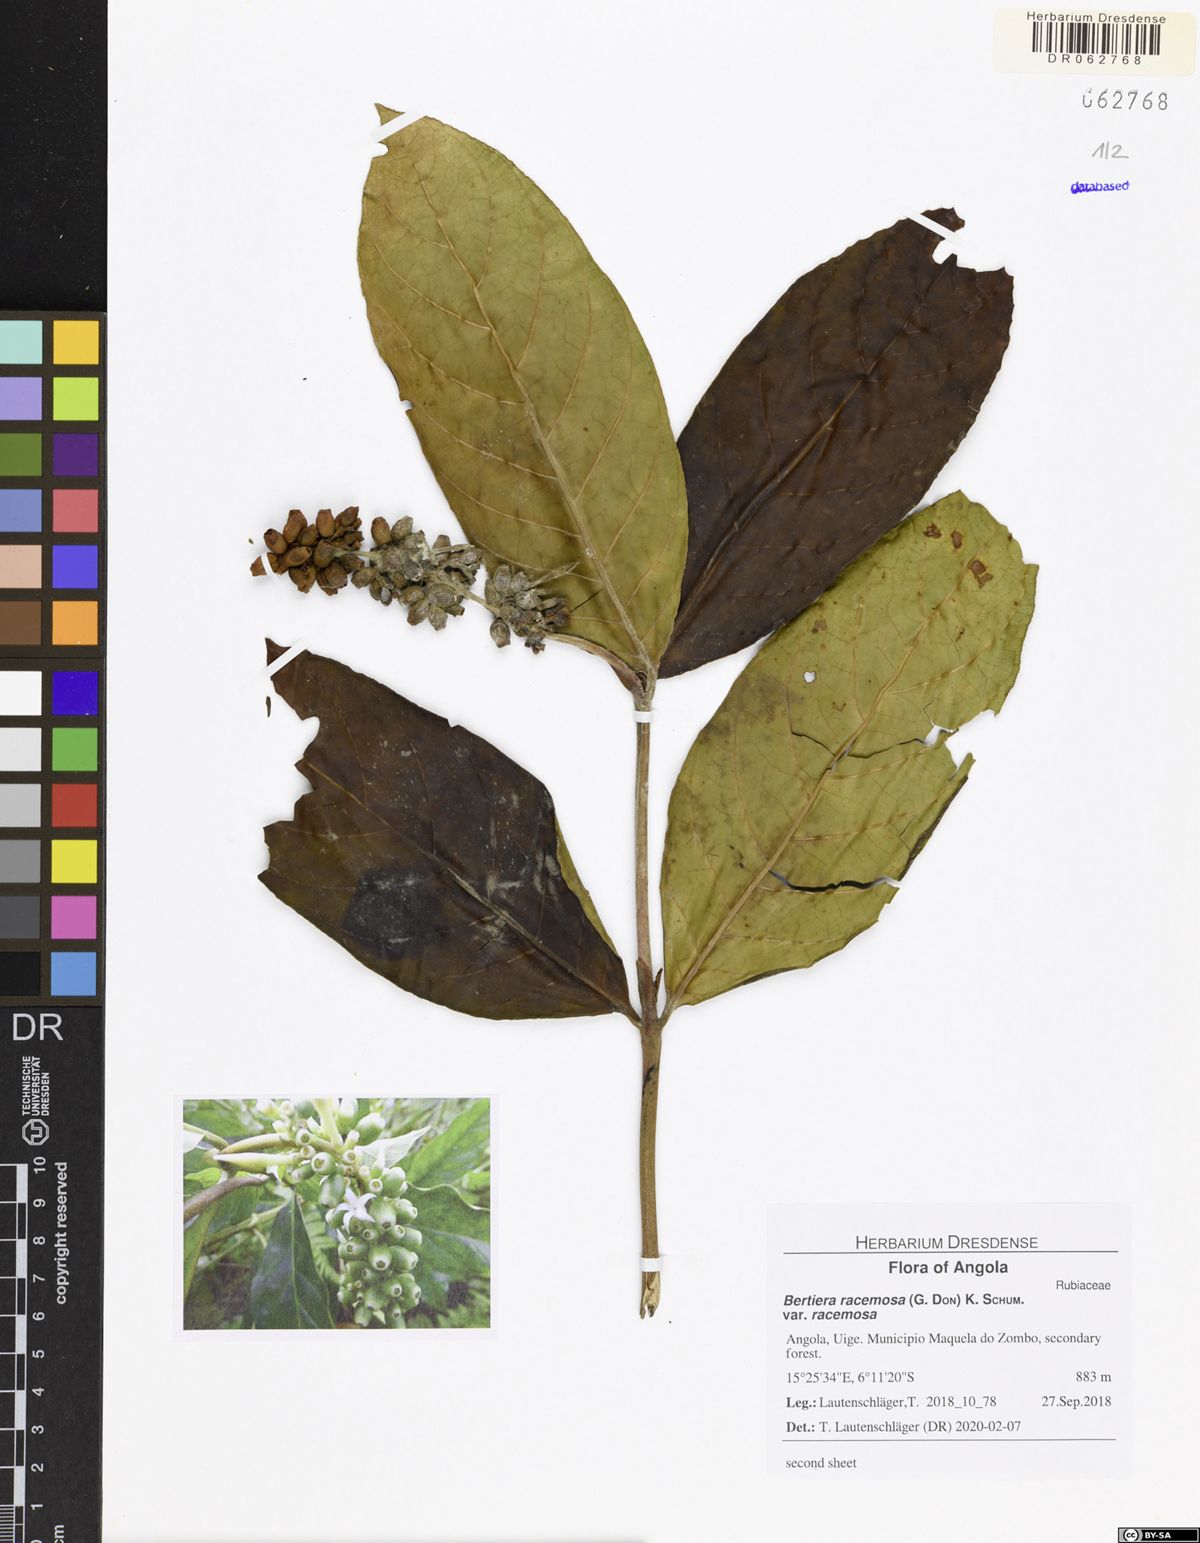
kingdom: Plantae
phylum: Tracheophyta
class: Magnoliopsida
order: Gentianales
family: Rubiaceae
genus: Bertiera
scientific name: Bertiera racemosa
